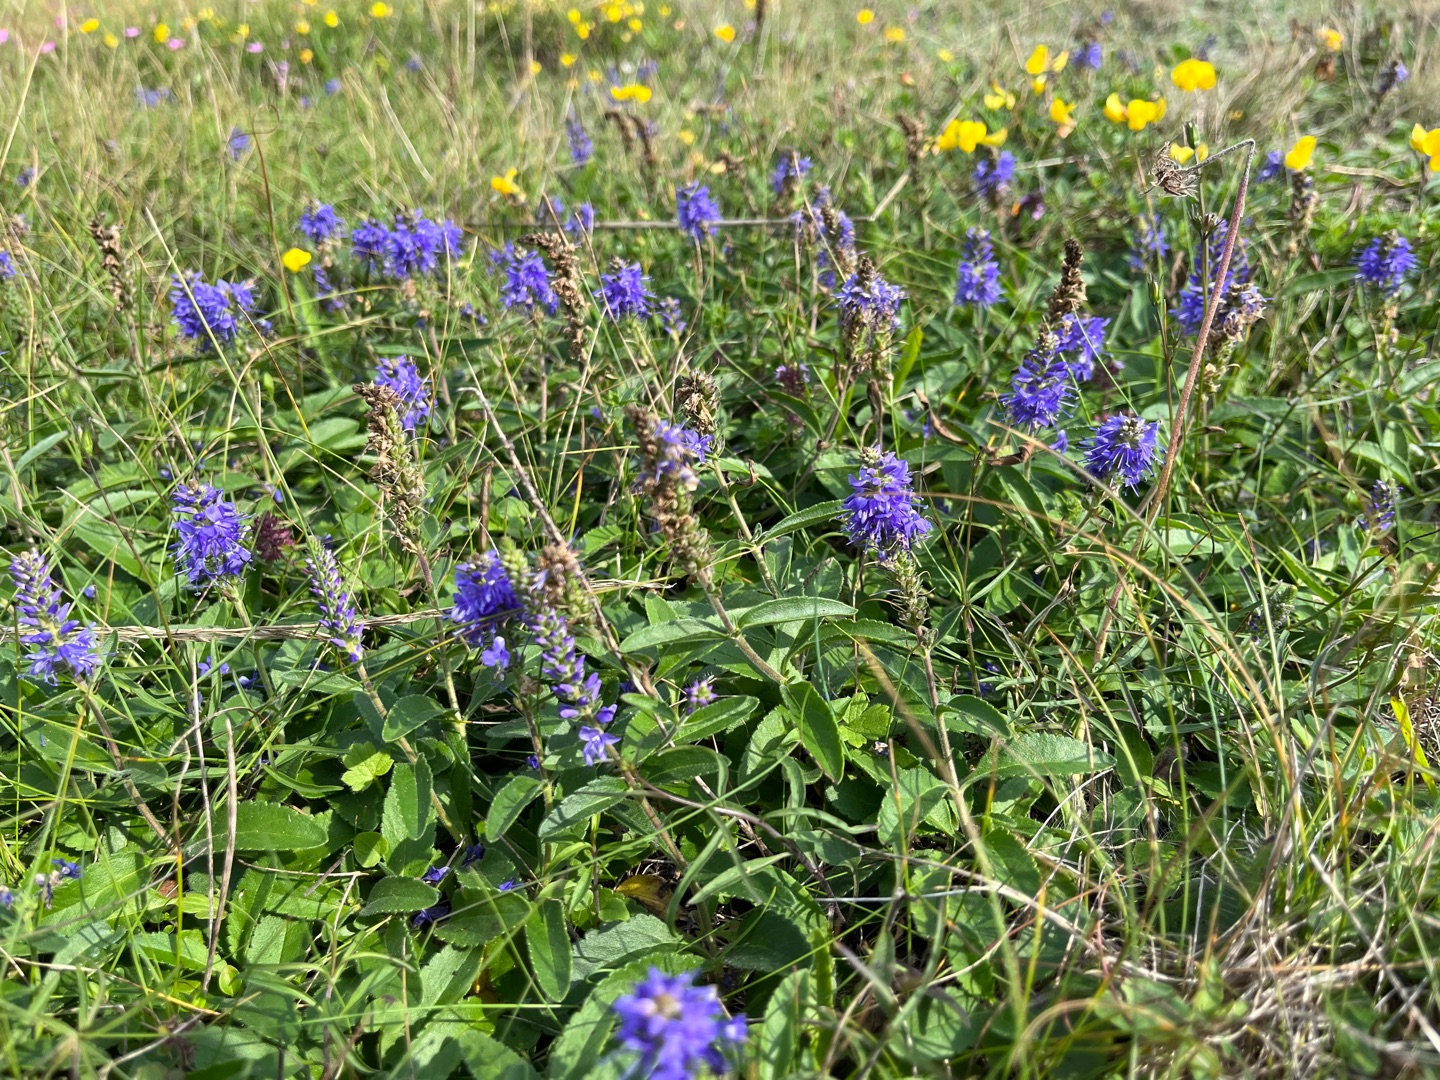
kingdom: Plantae
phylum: Tracheophyta
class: Magnoliopsida
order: Lamiales
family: Plantaginaceae
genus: Veronica
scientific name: Veronica spicata
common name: Aks-ærenpris
